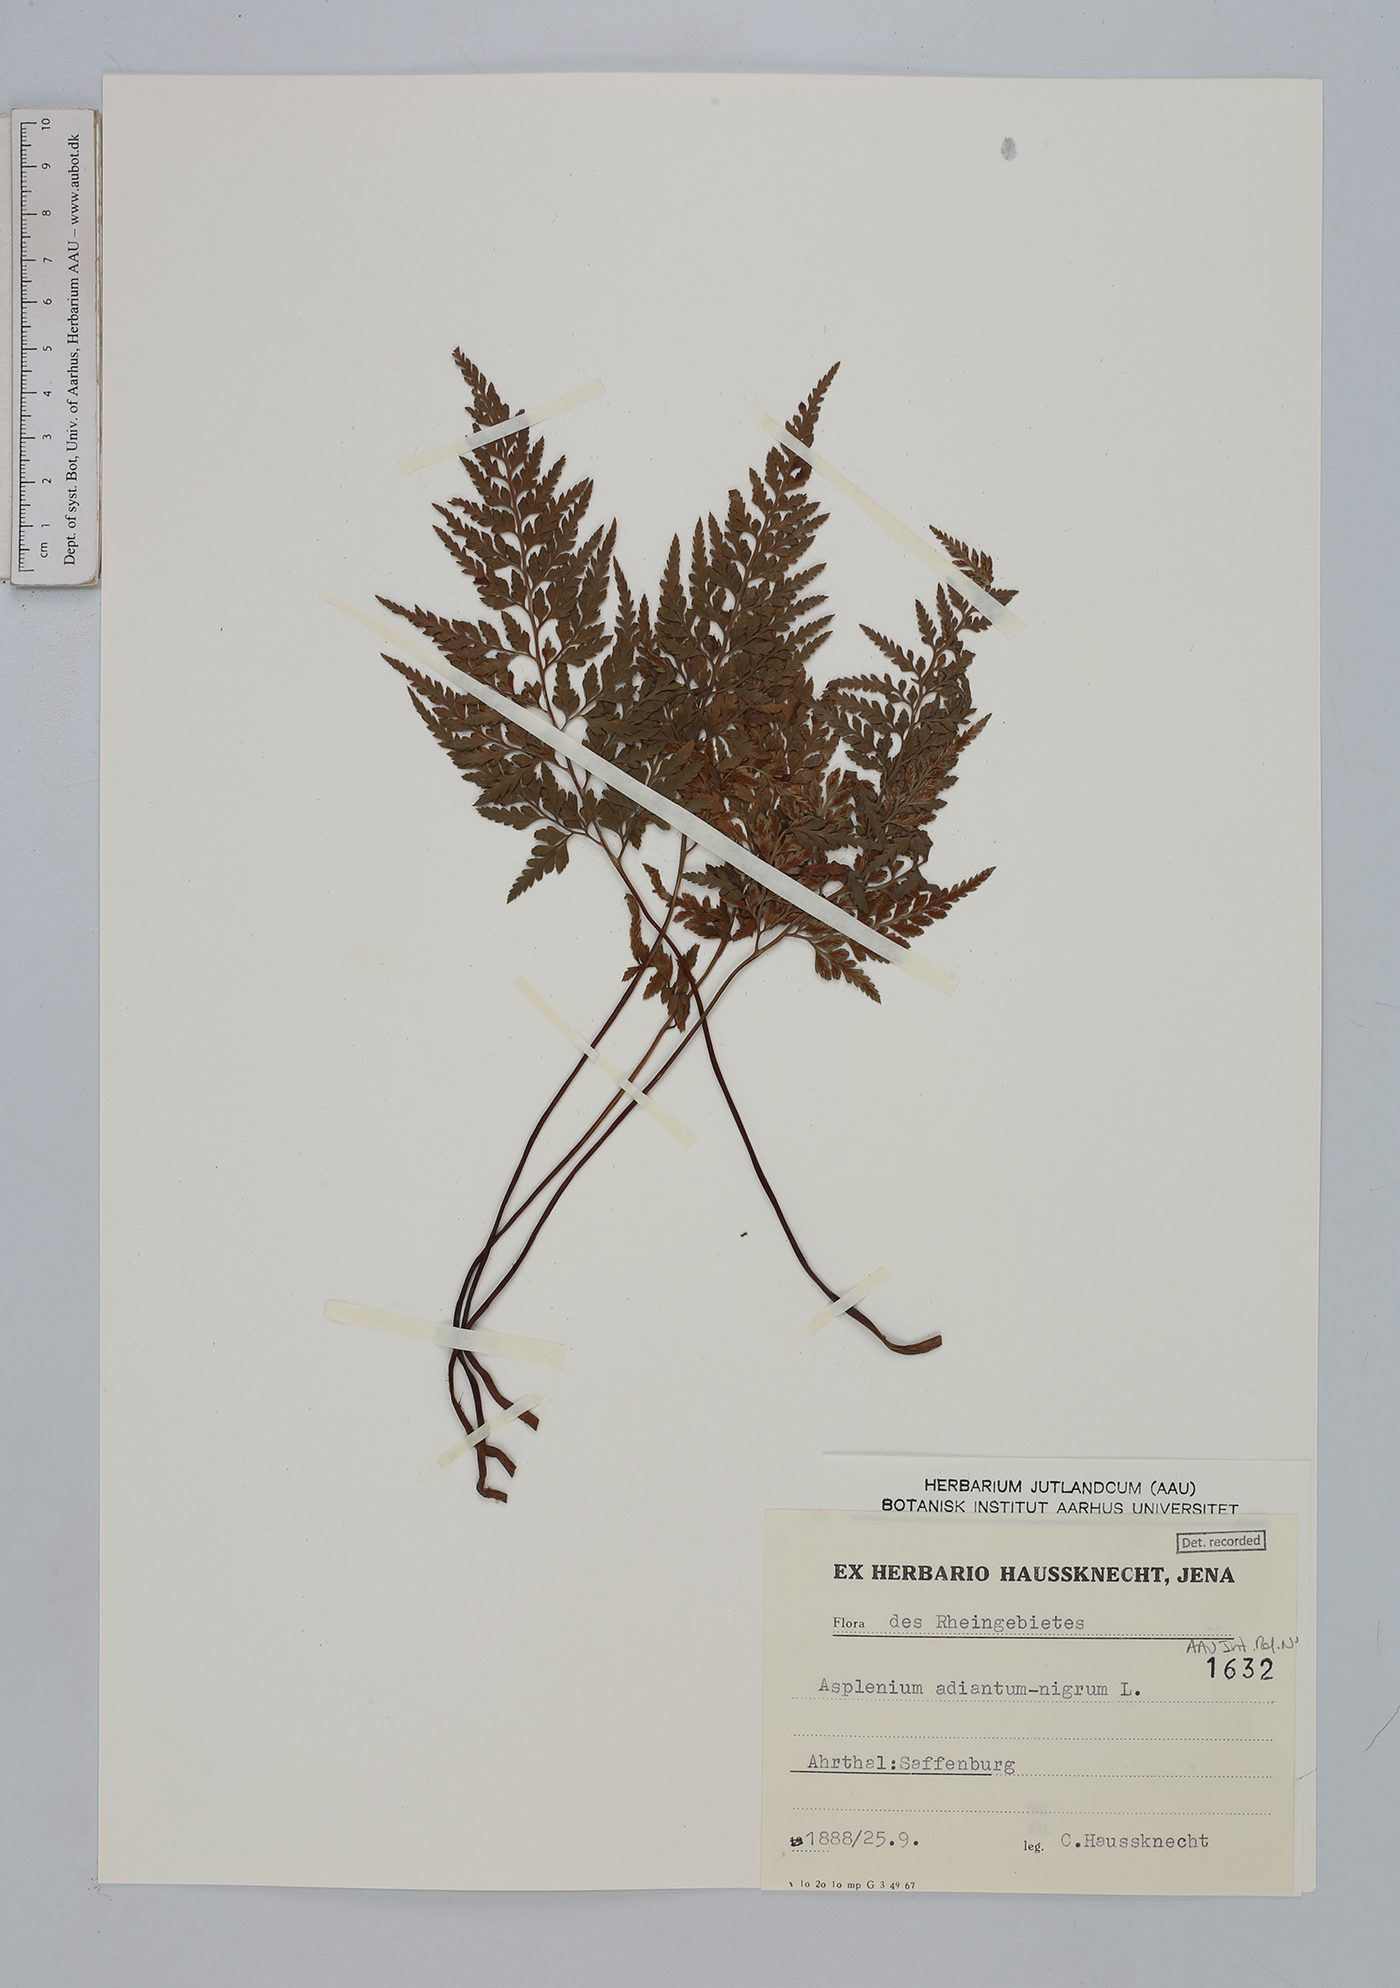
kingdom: Plantae
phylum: Tracheophyta
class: Polypodiopsida
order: Polypodiales
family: Aspleniaceae
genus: Asplenium
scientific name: Asplenium adiantum-nigrum
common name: Black spleenwort
